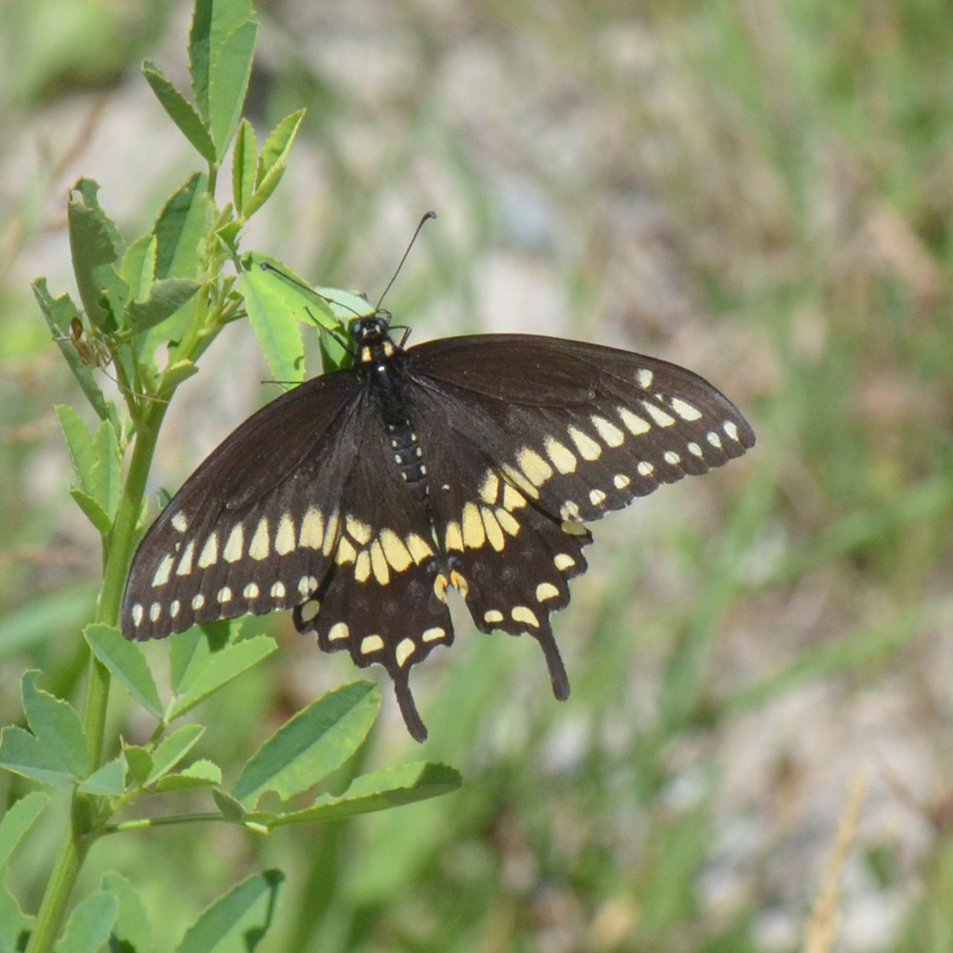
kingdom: Animalia
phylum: Arthropoda
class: Insecta
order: Lepidoptera
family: Papilionidae
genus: Papilio
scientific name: Papilio polyxenes
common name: Black Swallowtail
